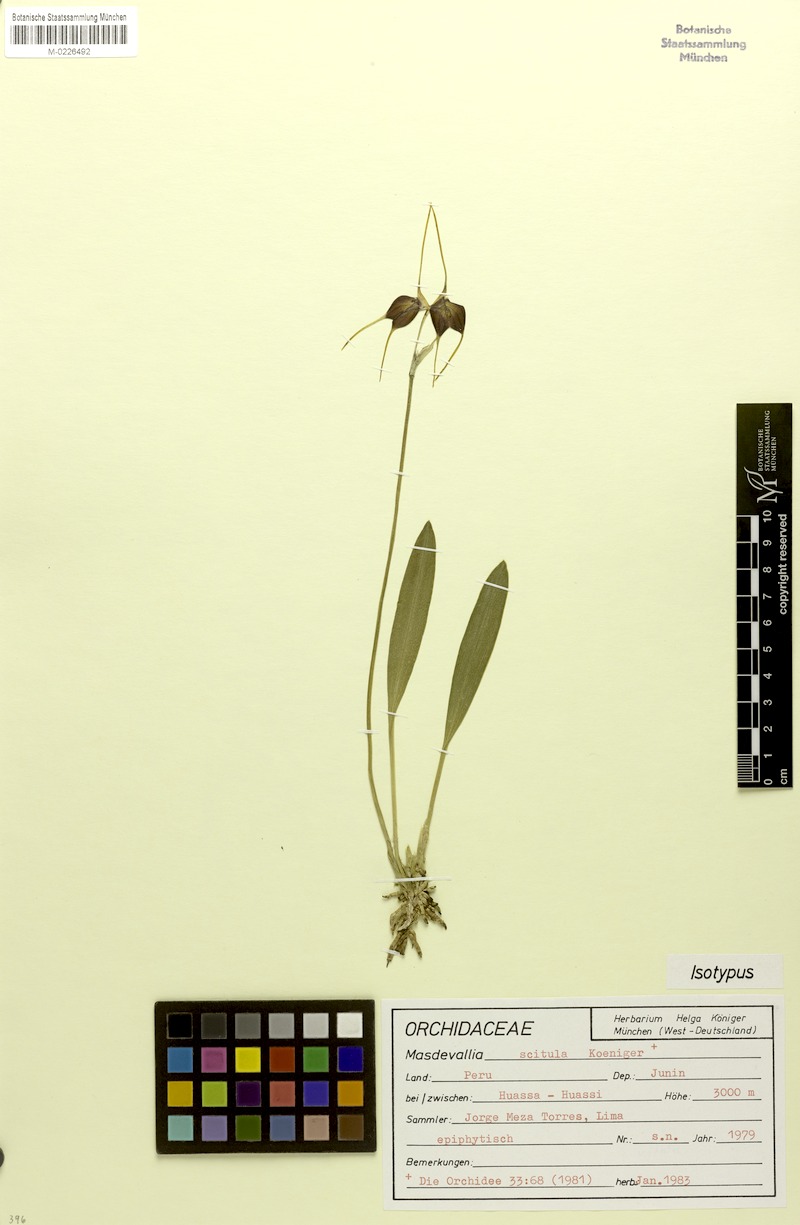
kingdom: Plantae
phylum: Tracheophyta
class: Liliopsida
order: Asparagales
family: Orchidaceae
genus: Masdevallia
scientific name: Masdevallia scitula
